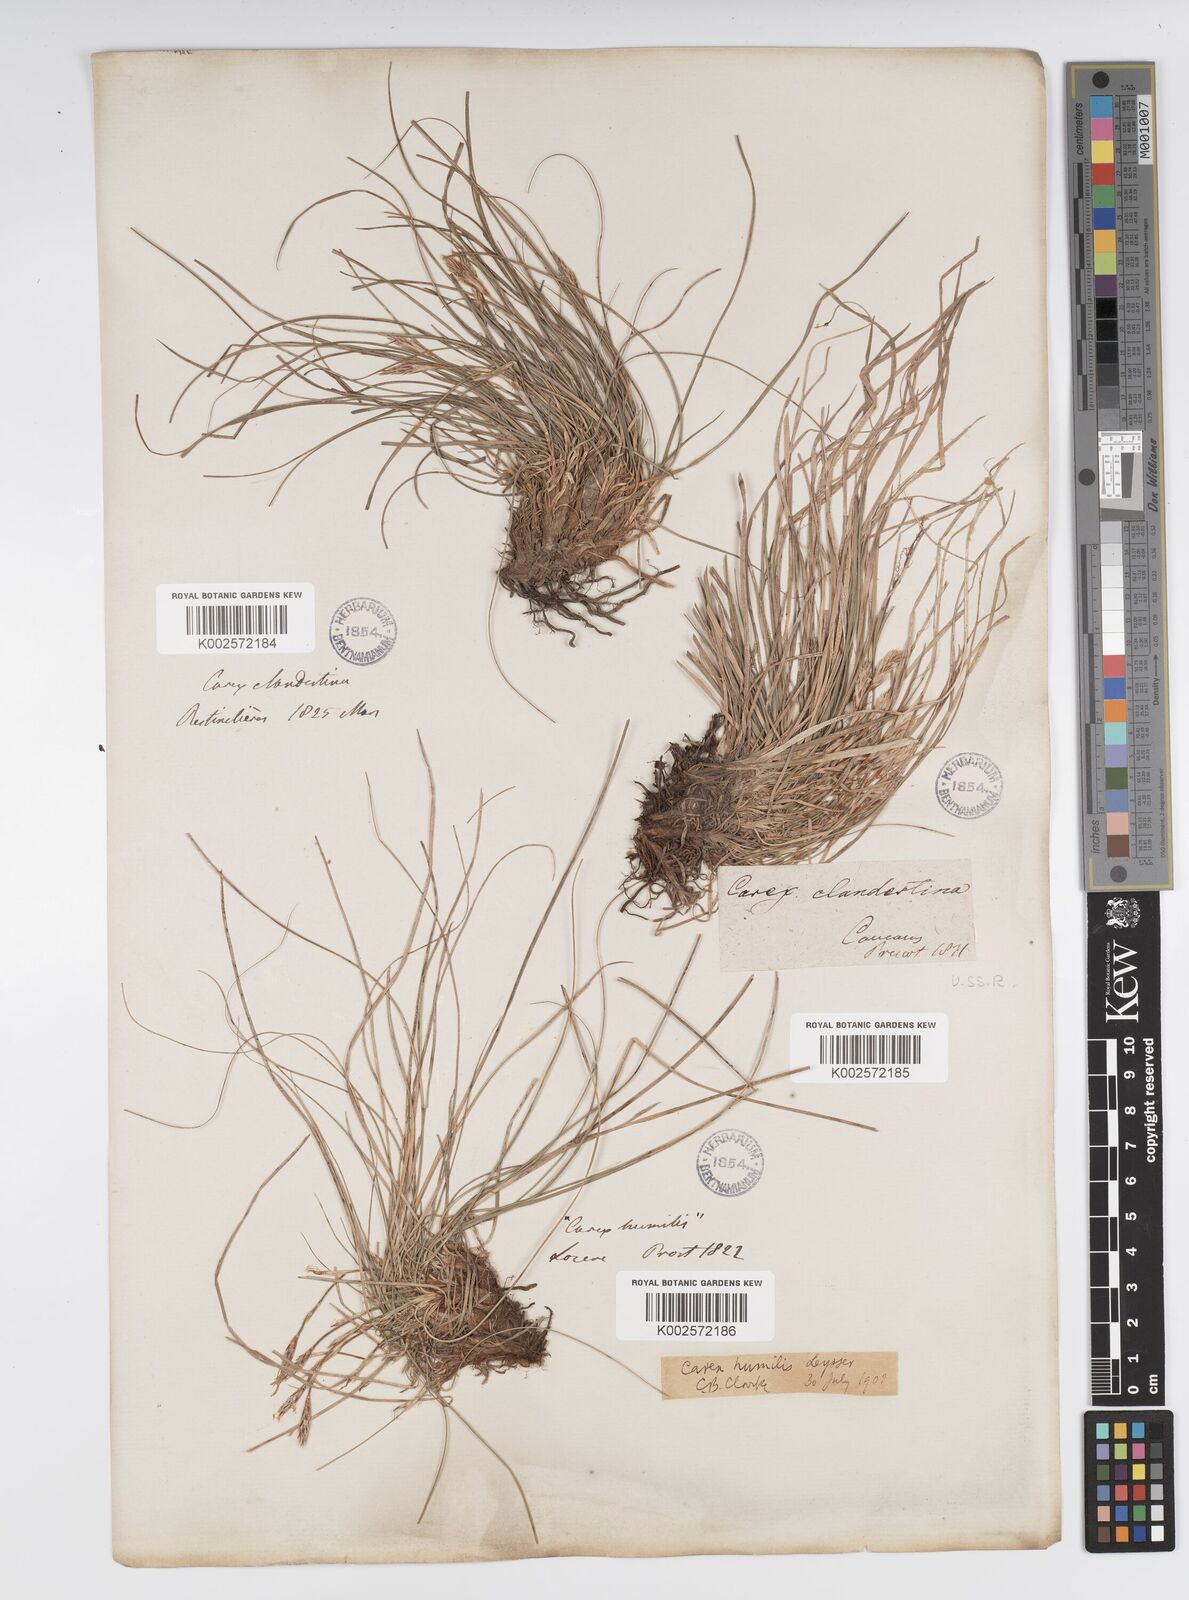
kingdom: Plantae
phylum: Tracheophyta
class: Liliopsida
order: Poales
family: Cyperaceae
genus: Carex
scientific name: Carex humilis
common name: Dwarf sedge
